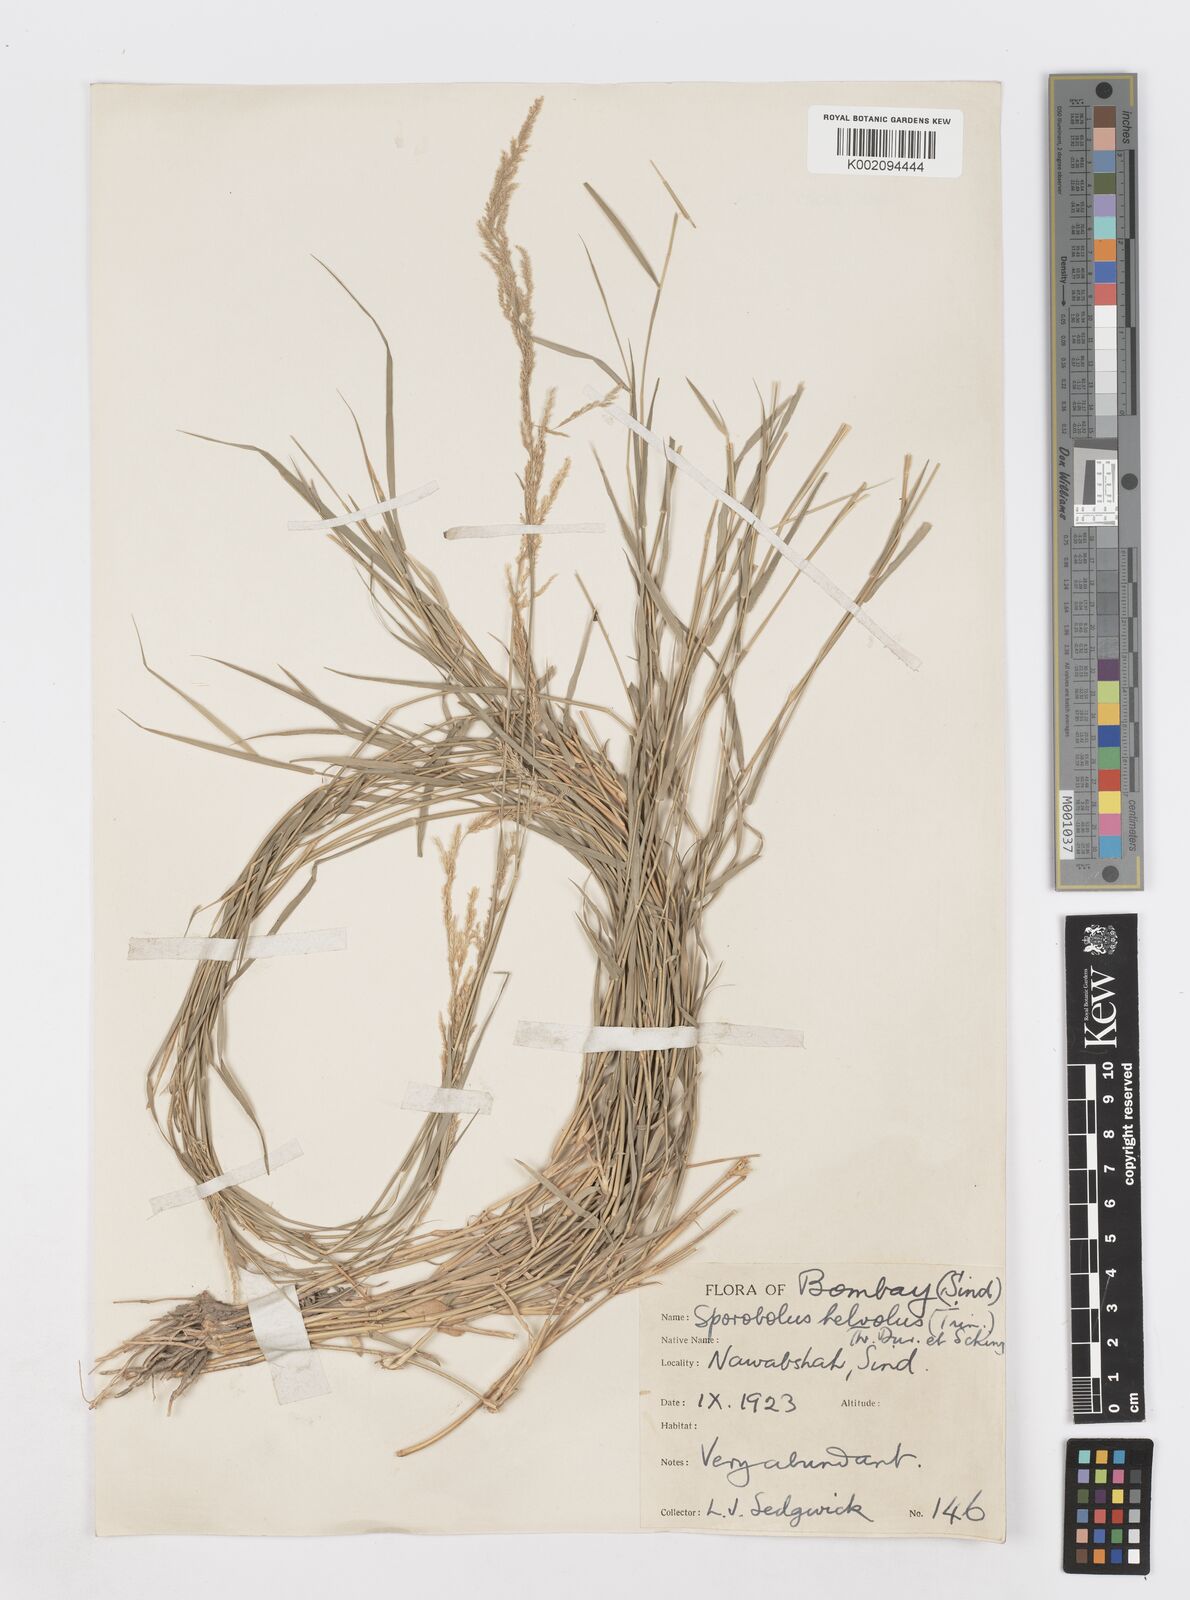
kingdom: Plantae
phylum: Tracheophyta
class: Liliopsida
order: Poales
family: Poaceae
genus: Sporobolus
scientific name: Sporobolus helvolus
